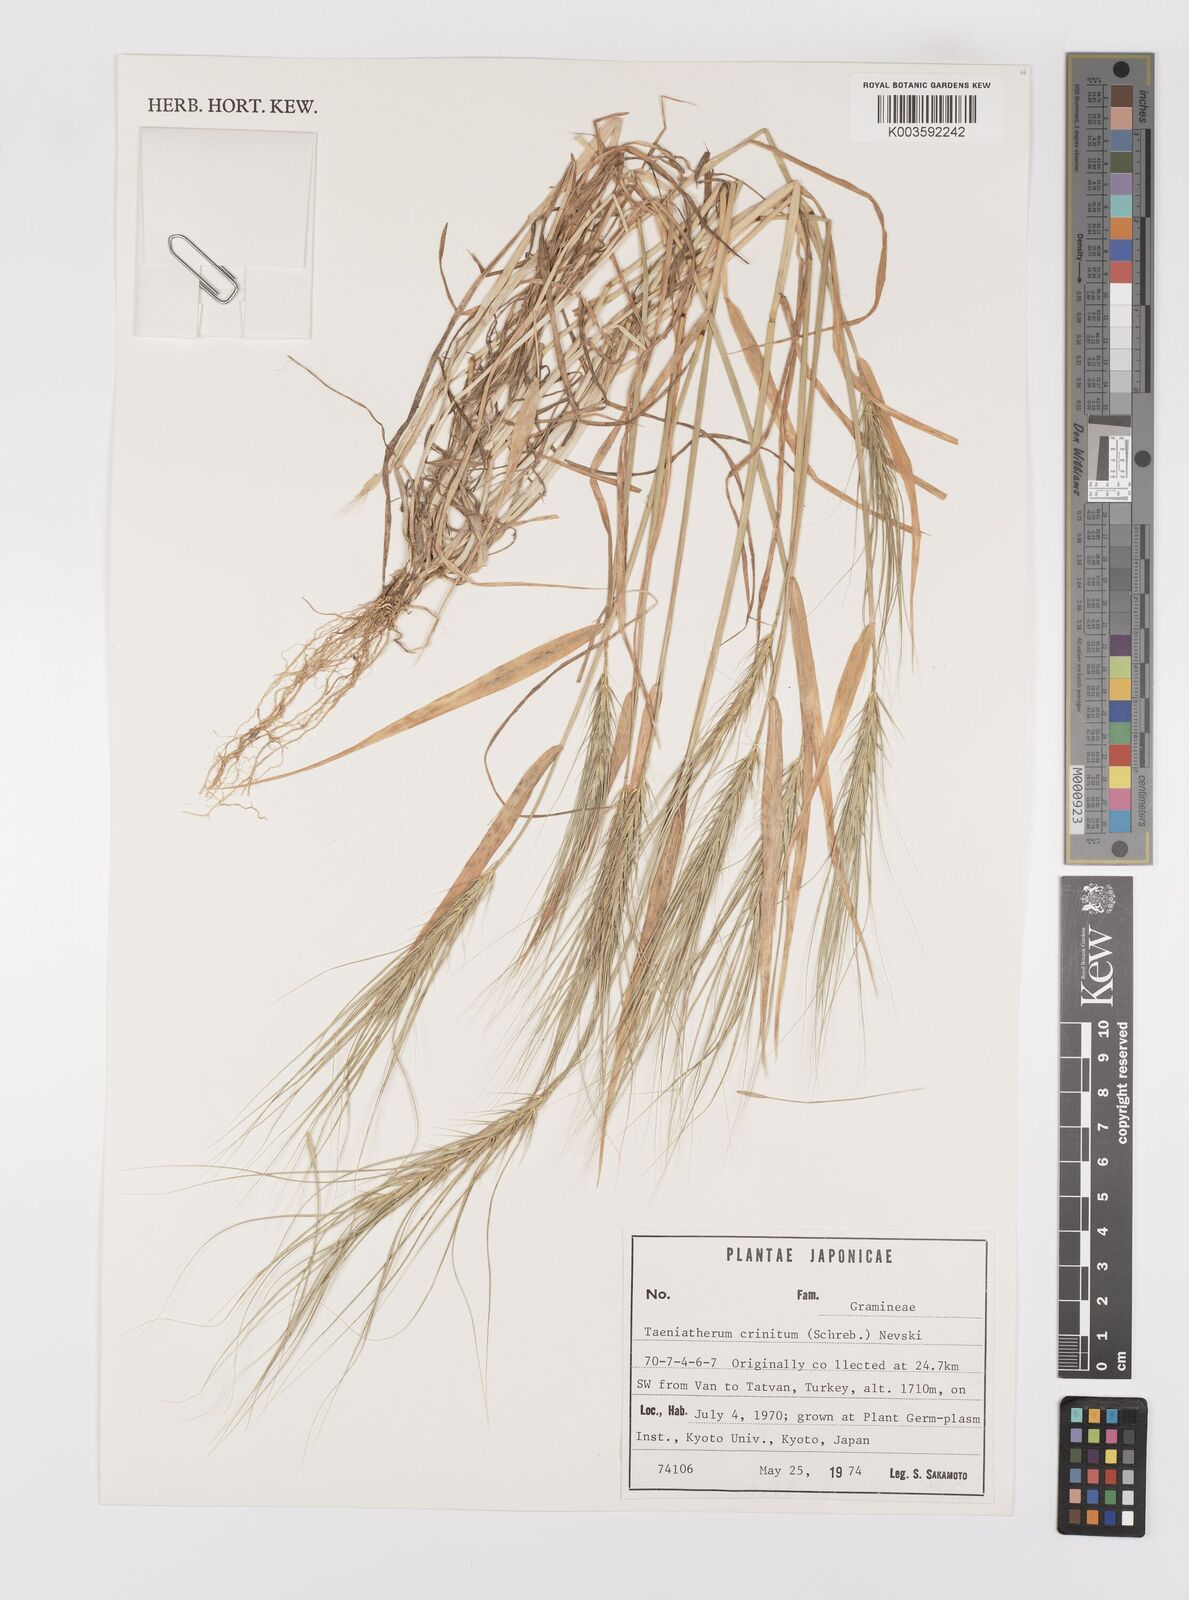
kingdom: Plantae
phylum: Tracheophyta
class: Liliopsida
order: Poales
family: Poaceae
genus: Taeniatherum
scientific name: Taeniatherum caput-medusae
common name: Medusahead
